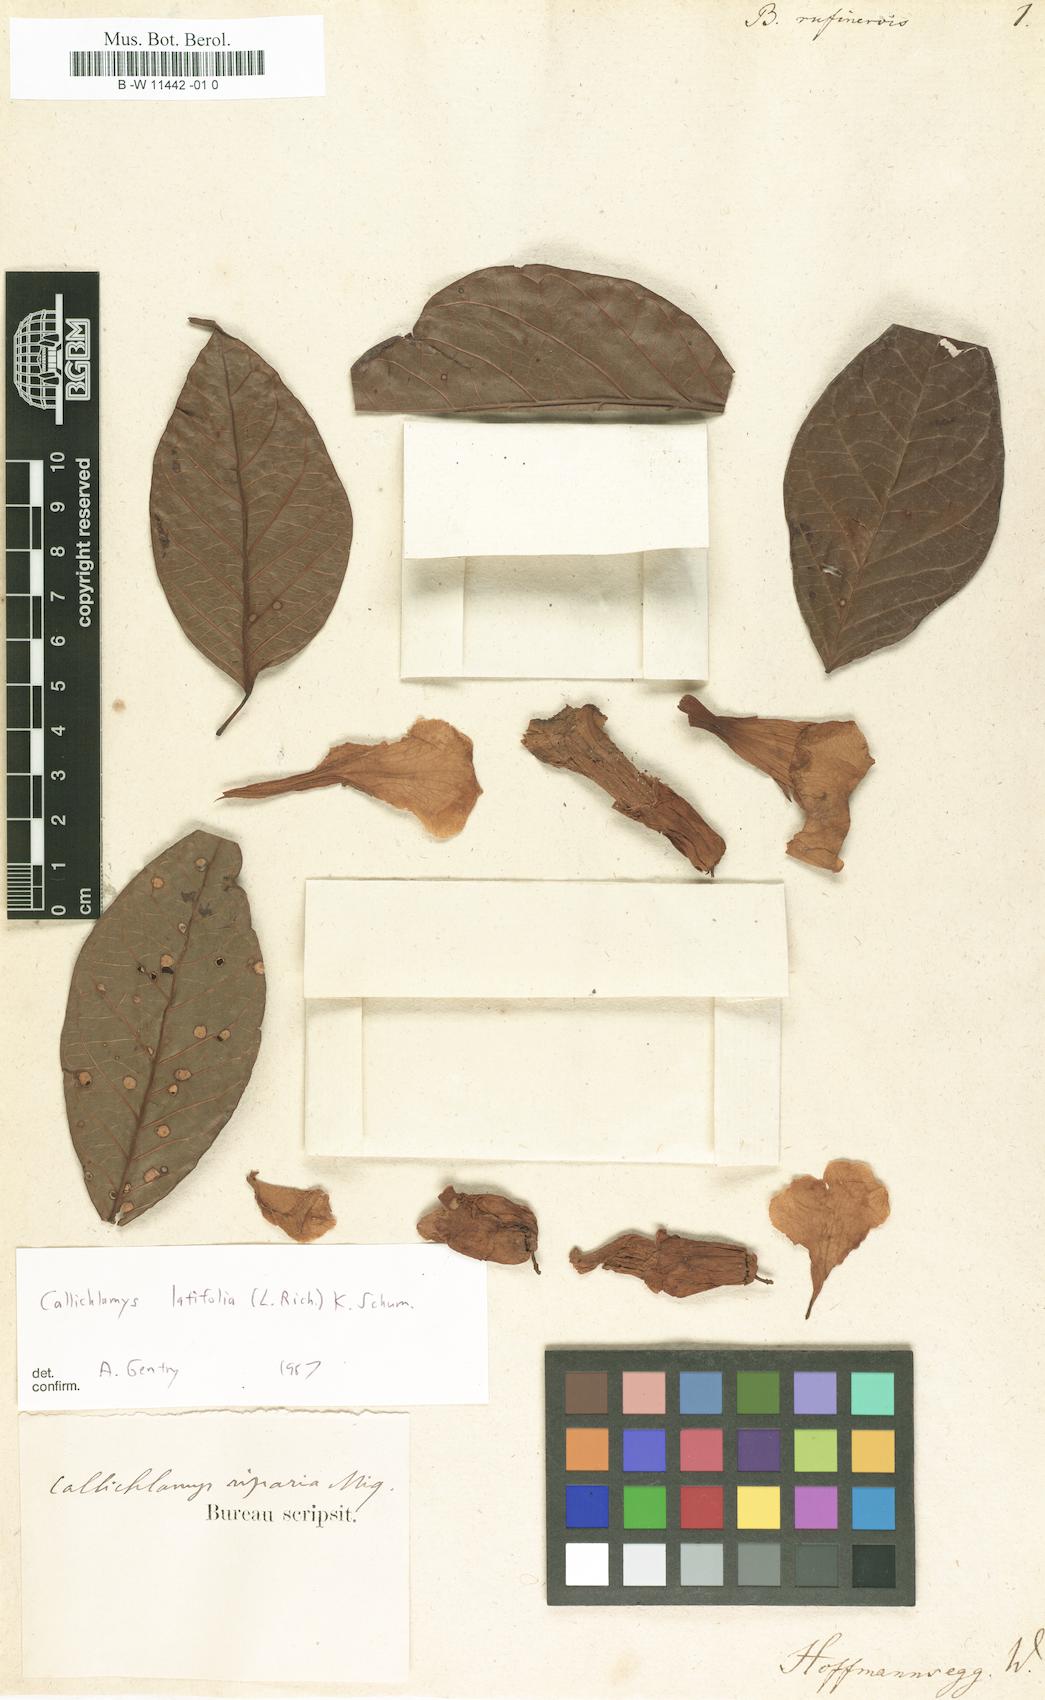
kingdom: Plantae
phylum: Tracheophyta
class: Magnoliopsida
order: Lamiales
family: Bignoniaceae
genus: Bignonia
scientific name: Bignonia rufinervis
